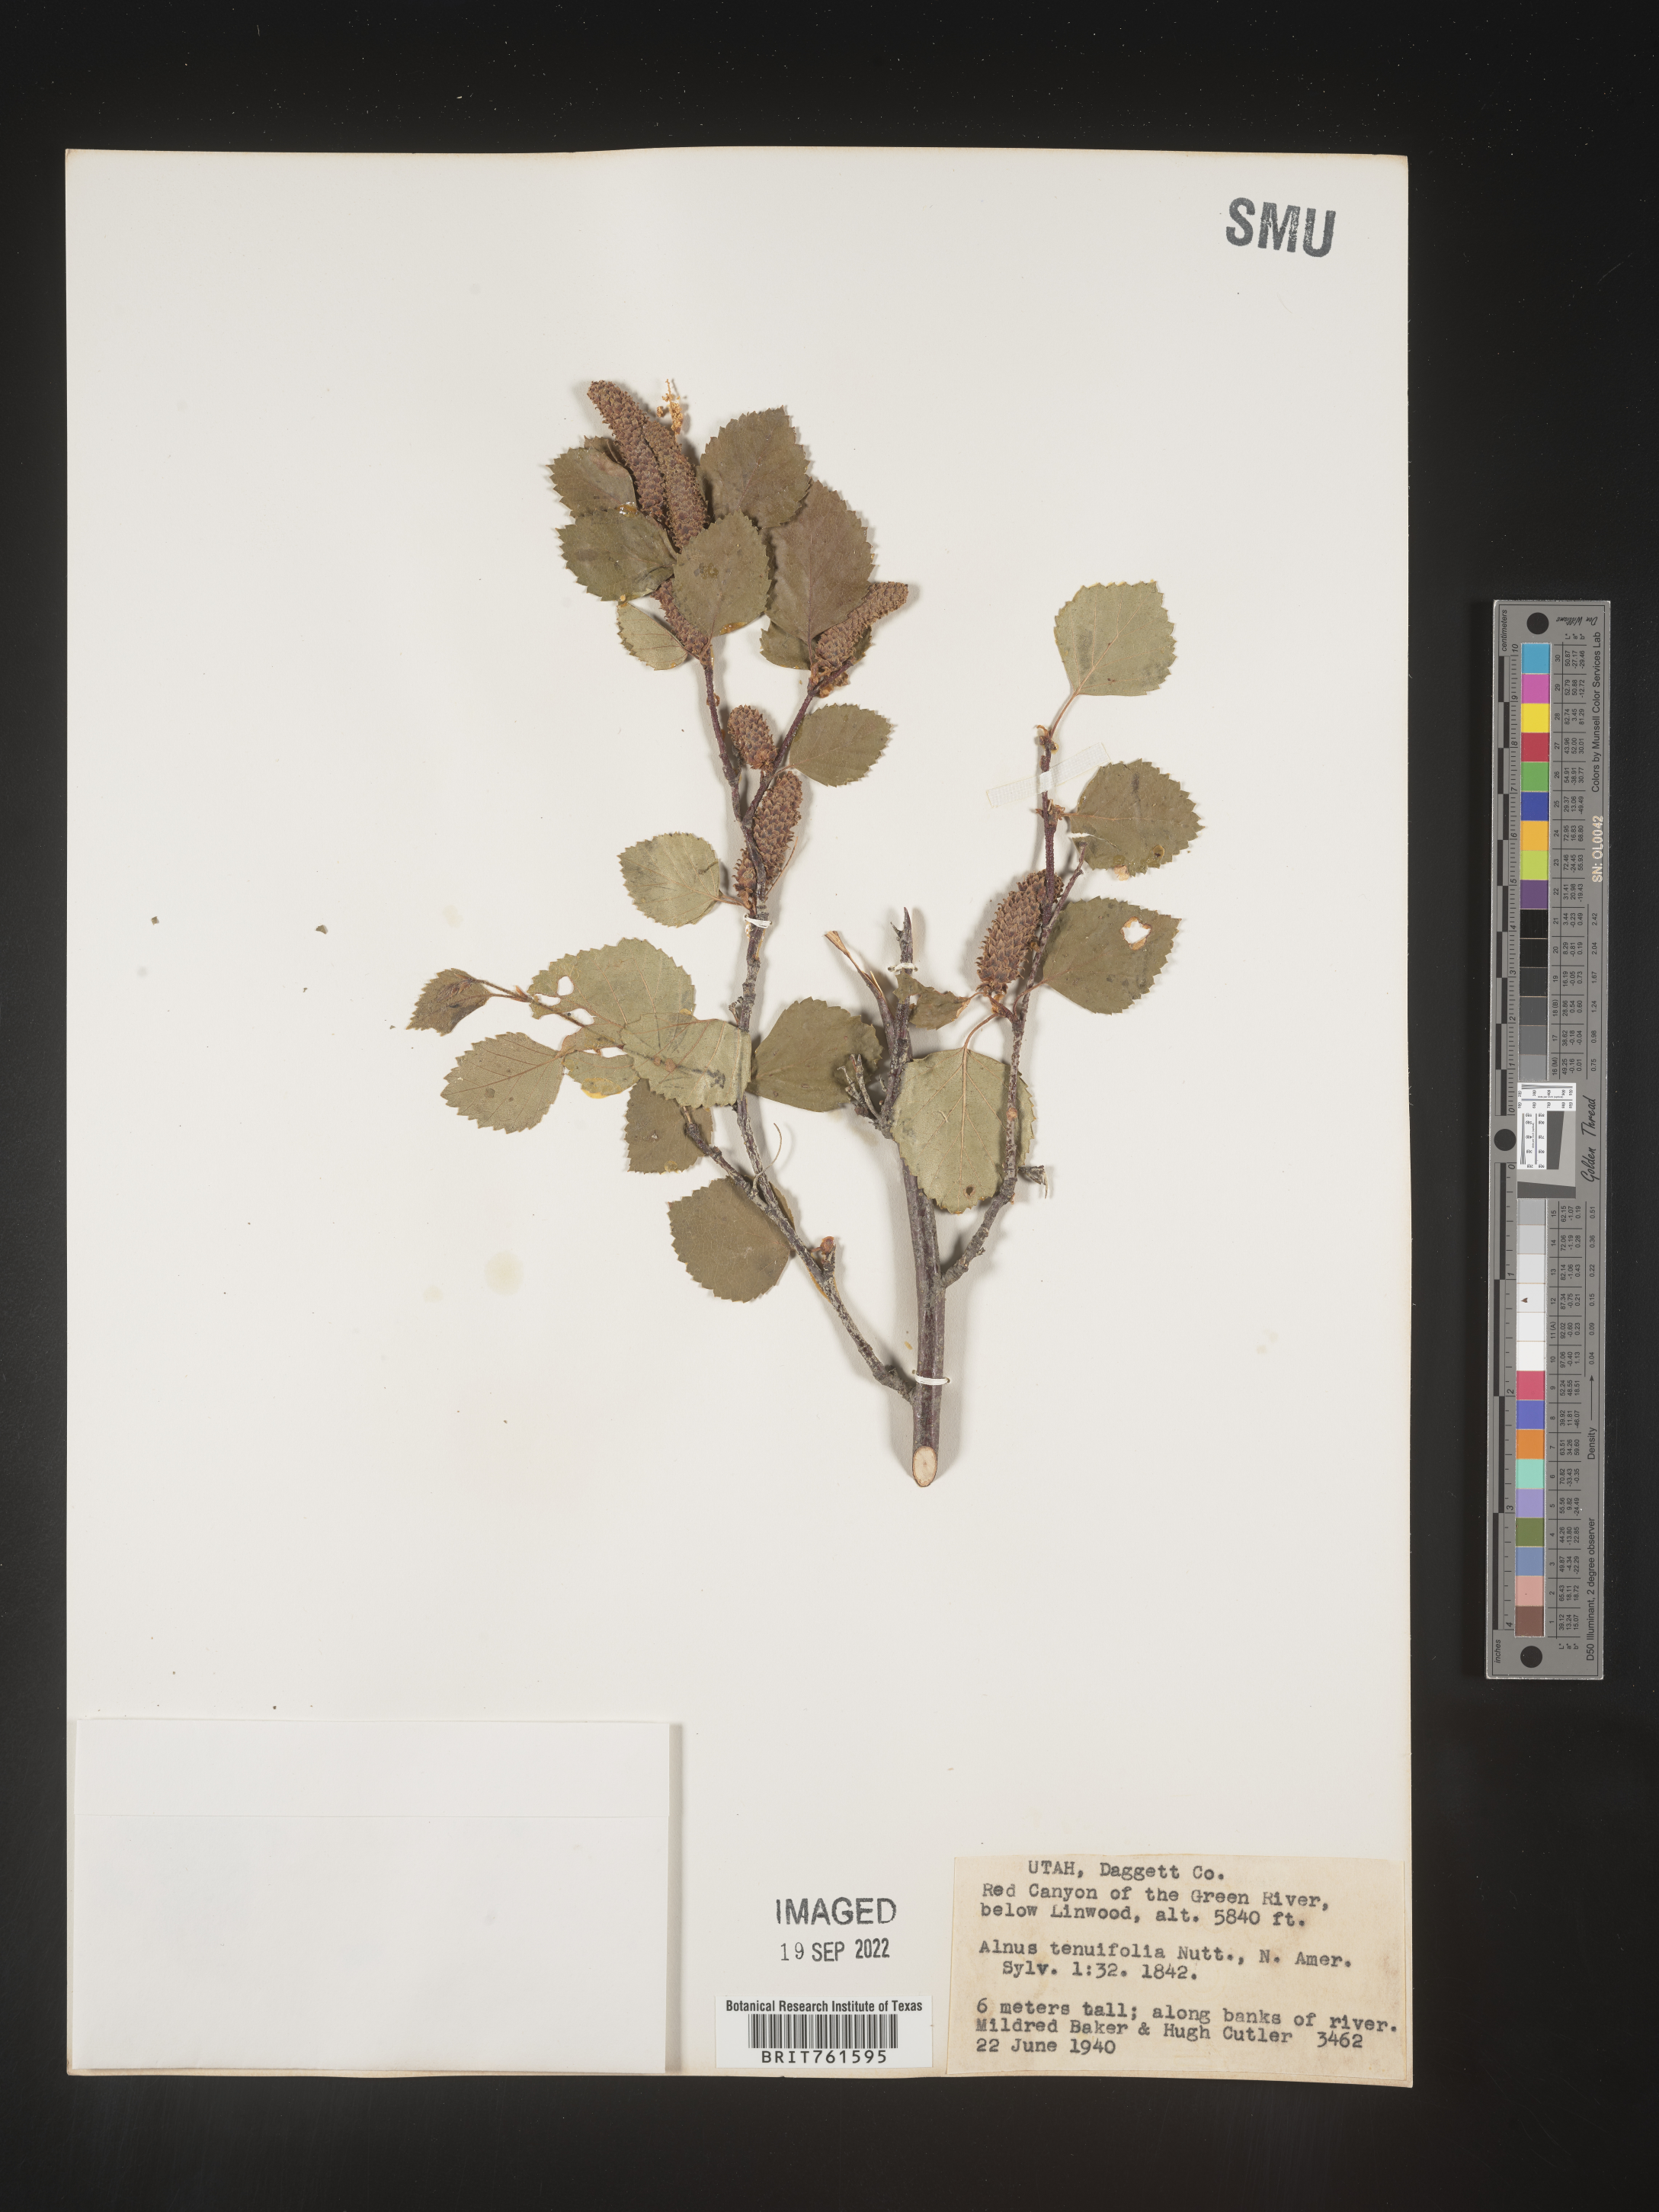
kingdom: Plantae
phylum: Tracheophyta
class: Magnoliopsida
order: Fagales
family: Betulaceae
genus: Alnus
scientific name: Alnus incana
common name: Grey alder
